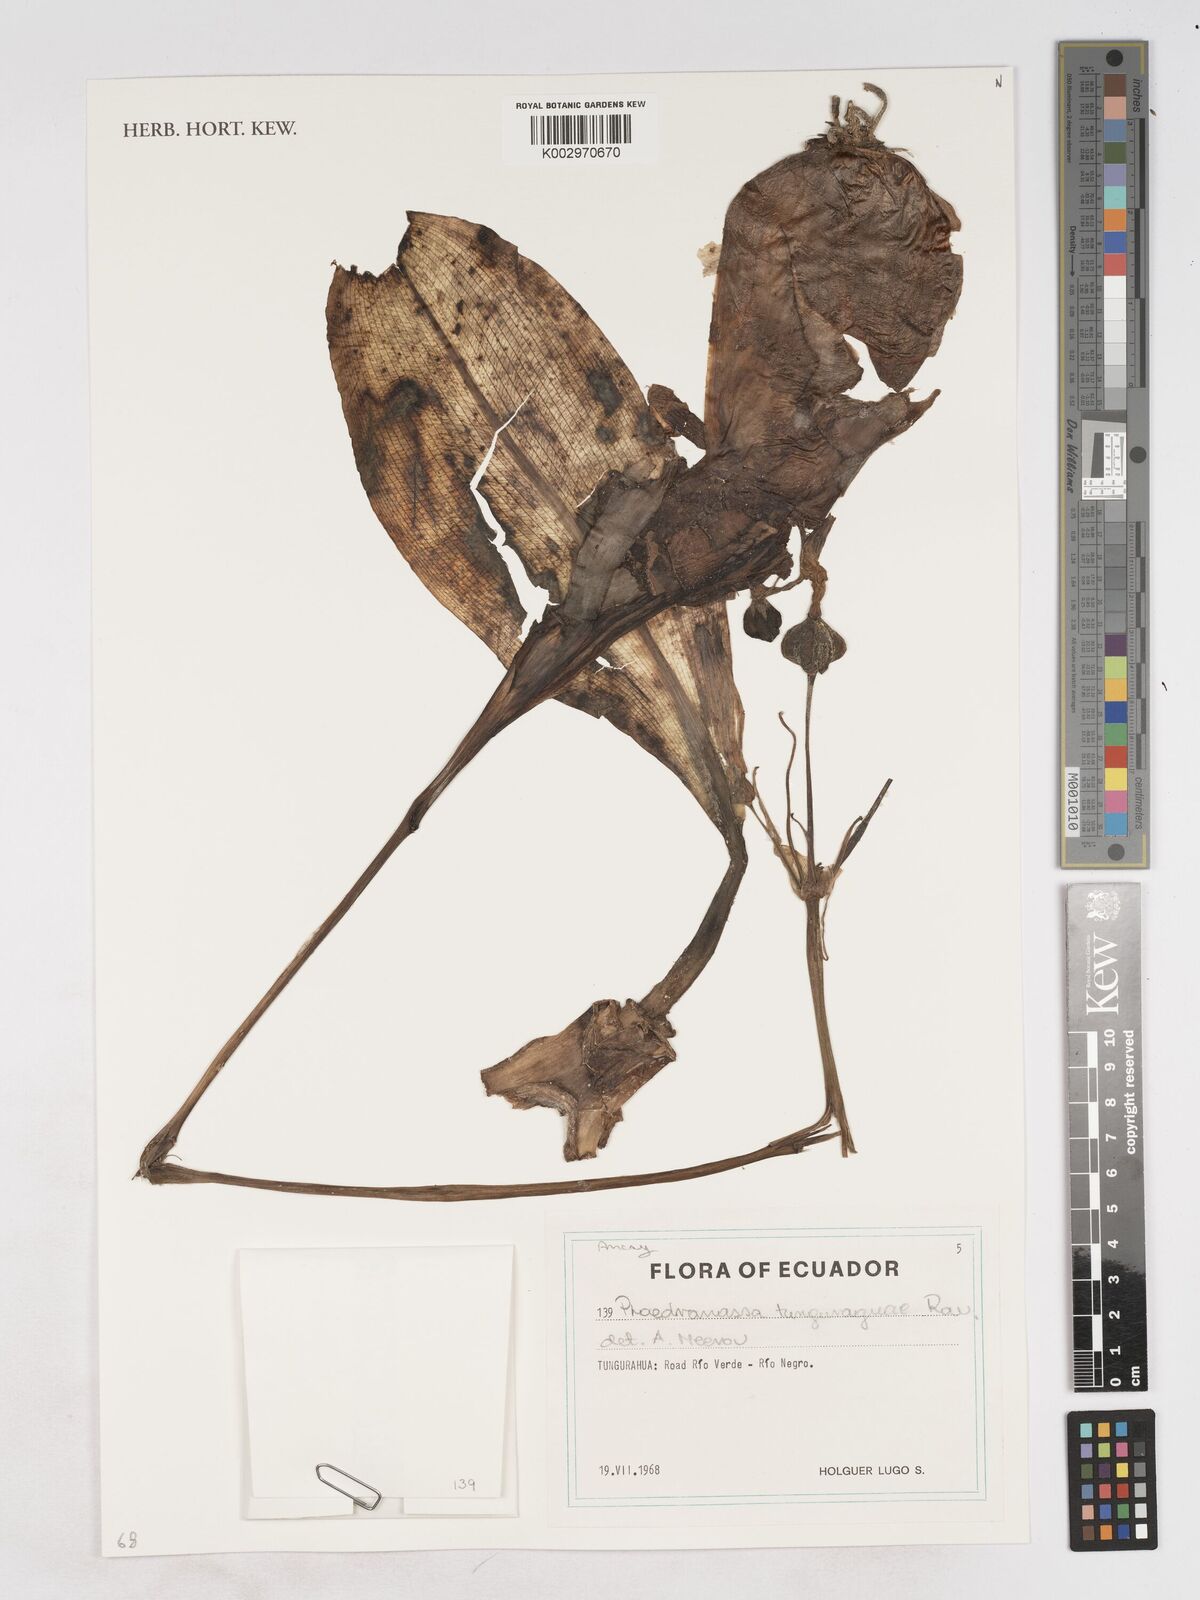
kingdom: Plantae
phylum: Tracheophyta
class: Liliopsida
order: Asparagales
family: Amaryllidaceae
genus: Phaedranassa
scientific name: Phaedranassa tunguraguae
